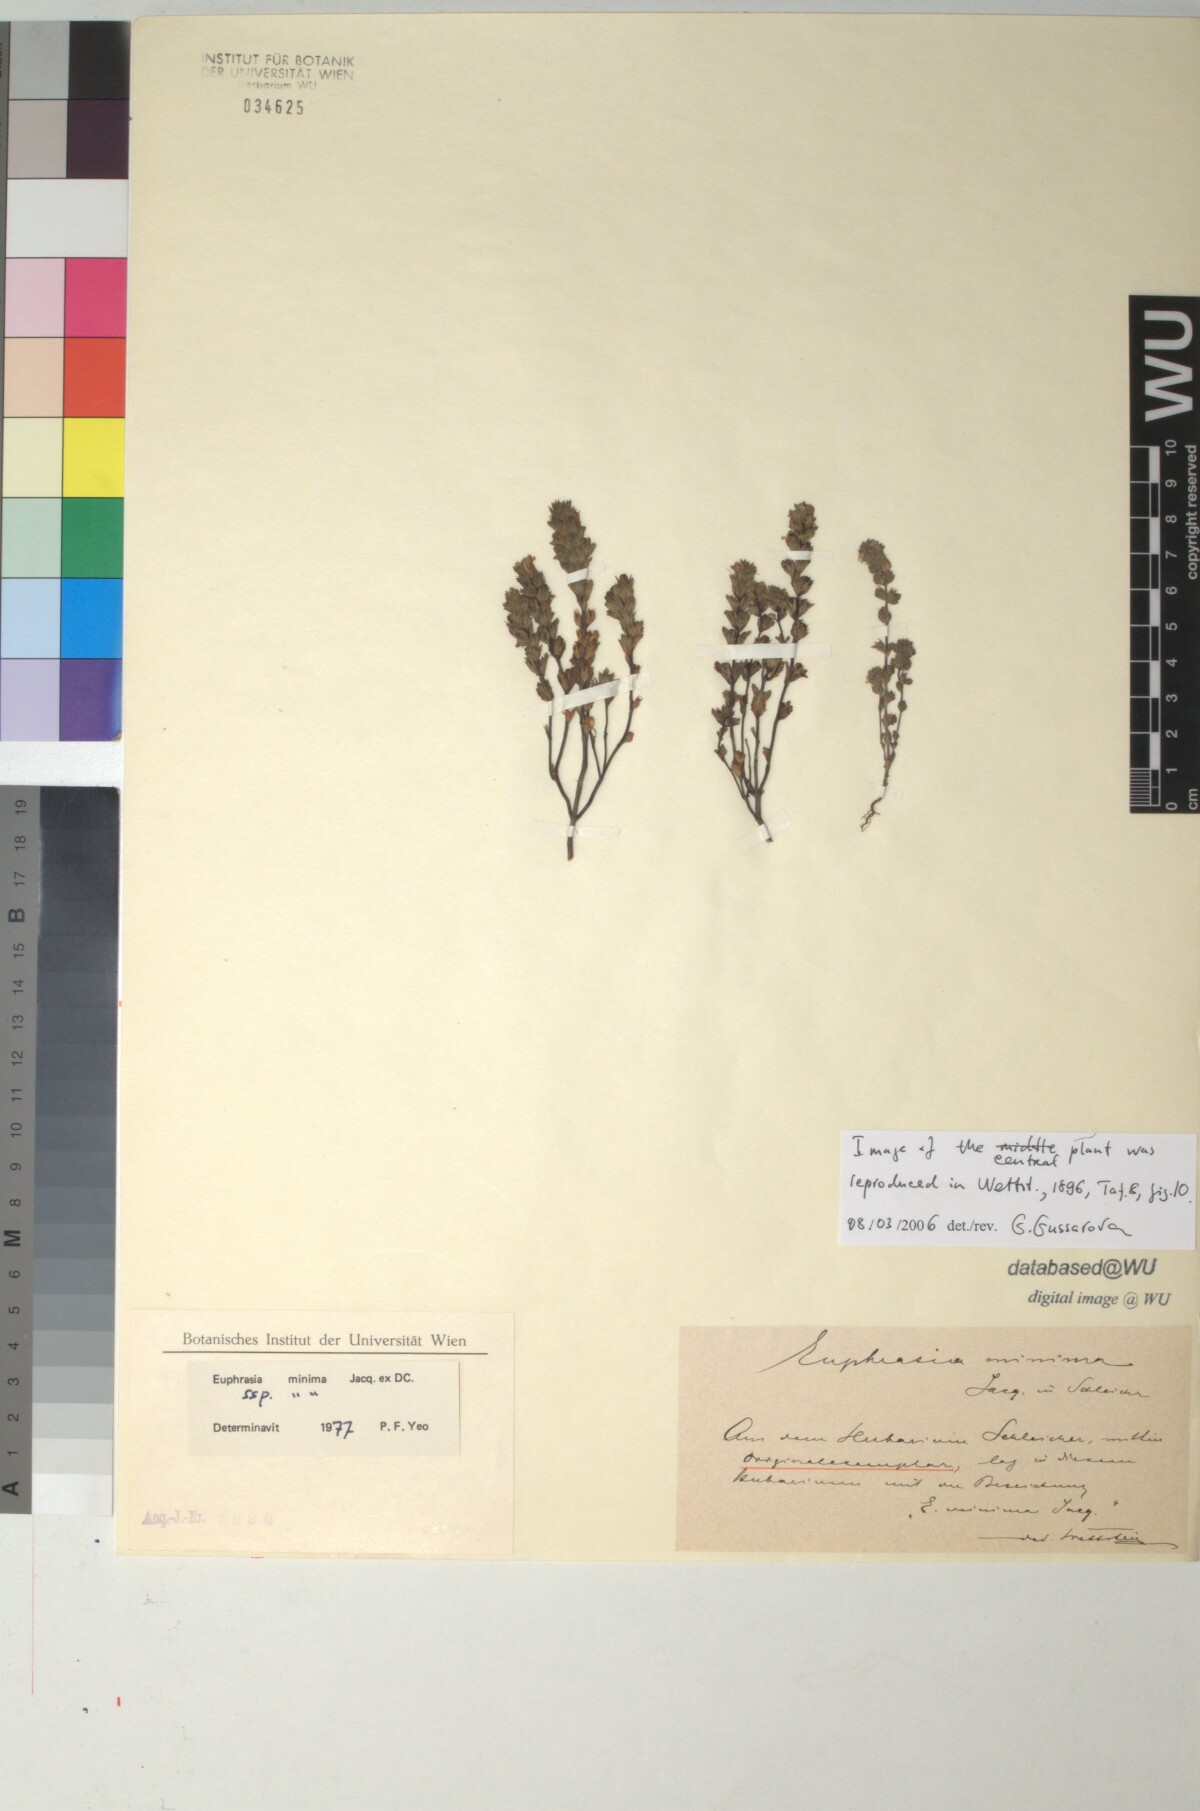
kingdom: Plantae
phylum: Tracheophyta
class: Magnoliopsida
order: Lamiales
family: Orobanchaceae
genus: Euphrasia
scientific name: Euphrasia minima
